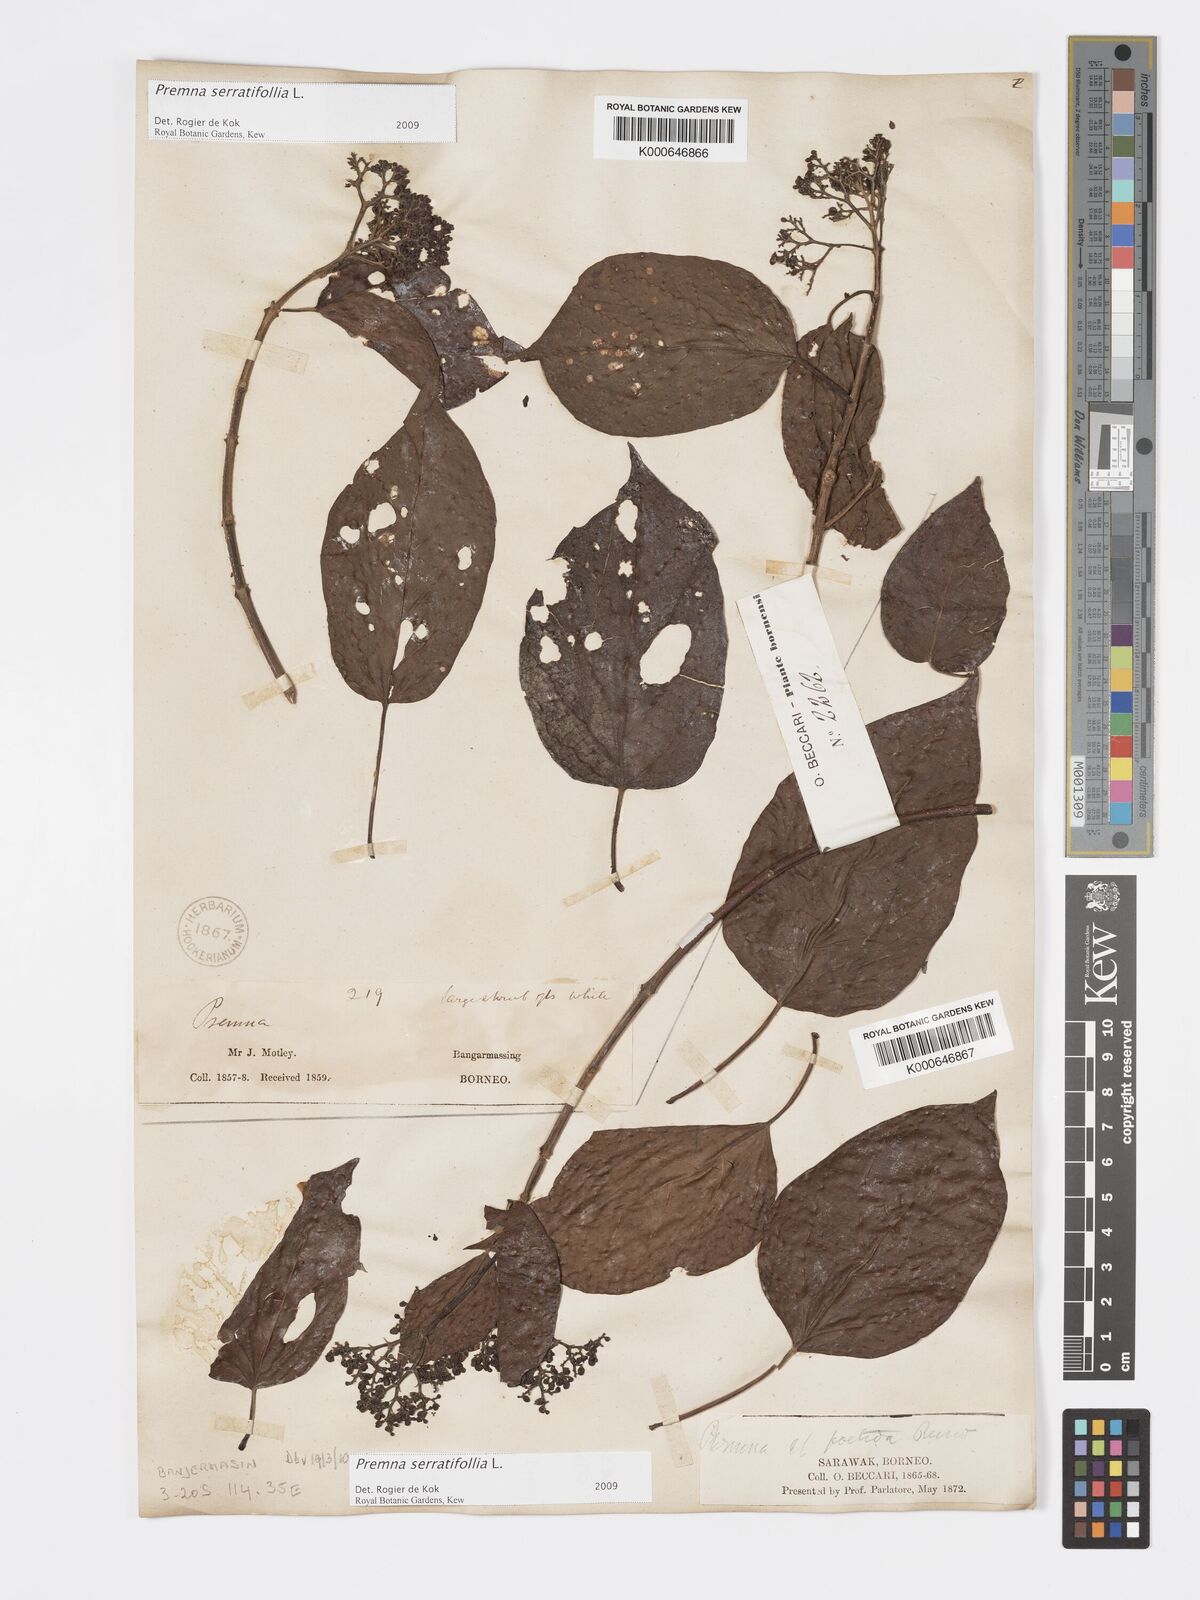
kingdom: Plantae
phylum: Tracheophyta
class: Magnoliopsida
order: Lamiales
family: Lamiaceae
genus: Premna
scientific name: Premna serratifolia
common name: Bastard guelder
